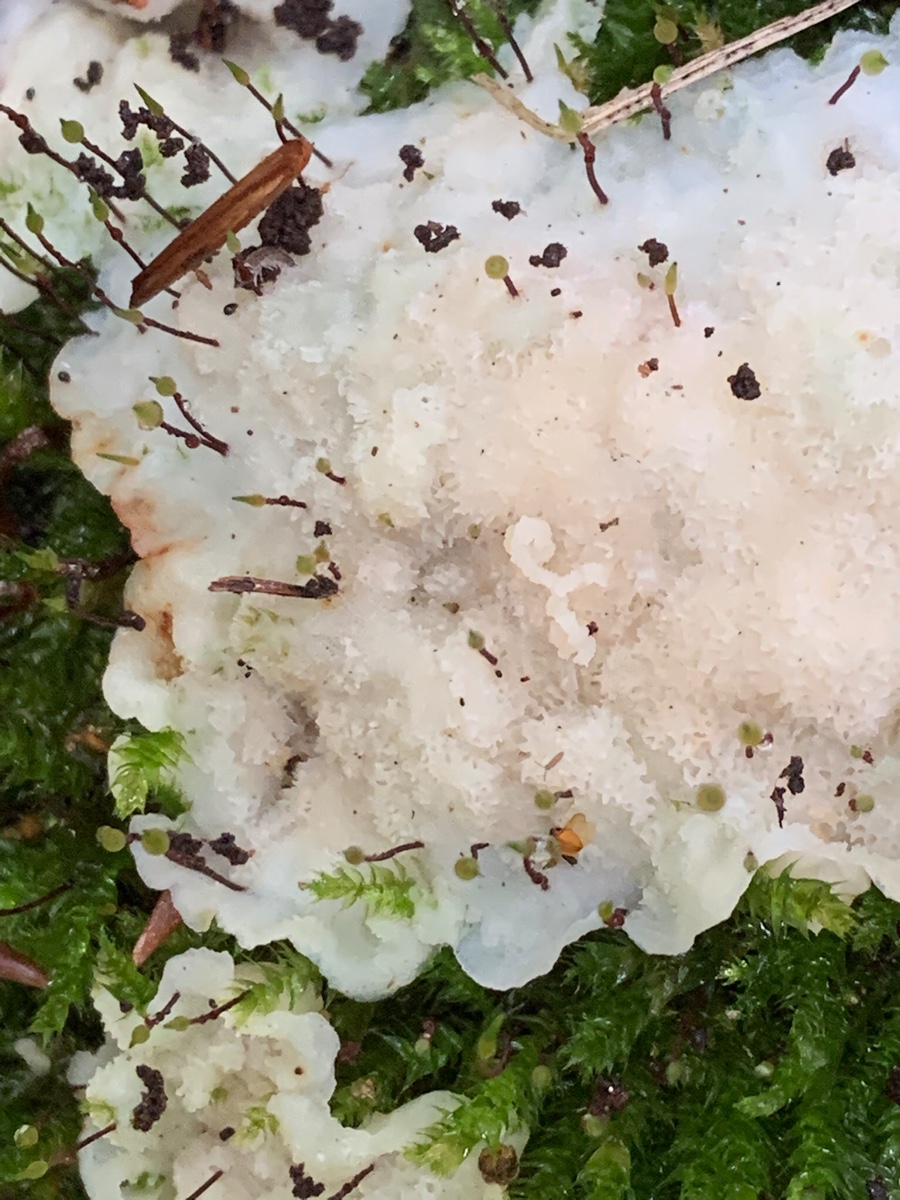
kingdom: Fungi
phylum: Basidiomycota
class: Agaricomycetes
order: Polyporales
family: Meruliaceae
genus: Physisporinus
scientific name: Physisporinus vitreus
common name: mastesvamp
